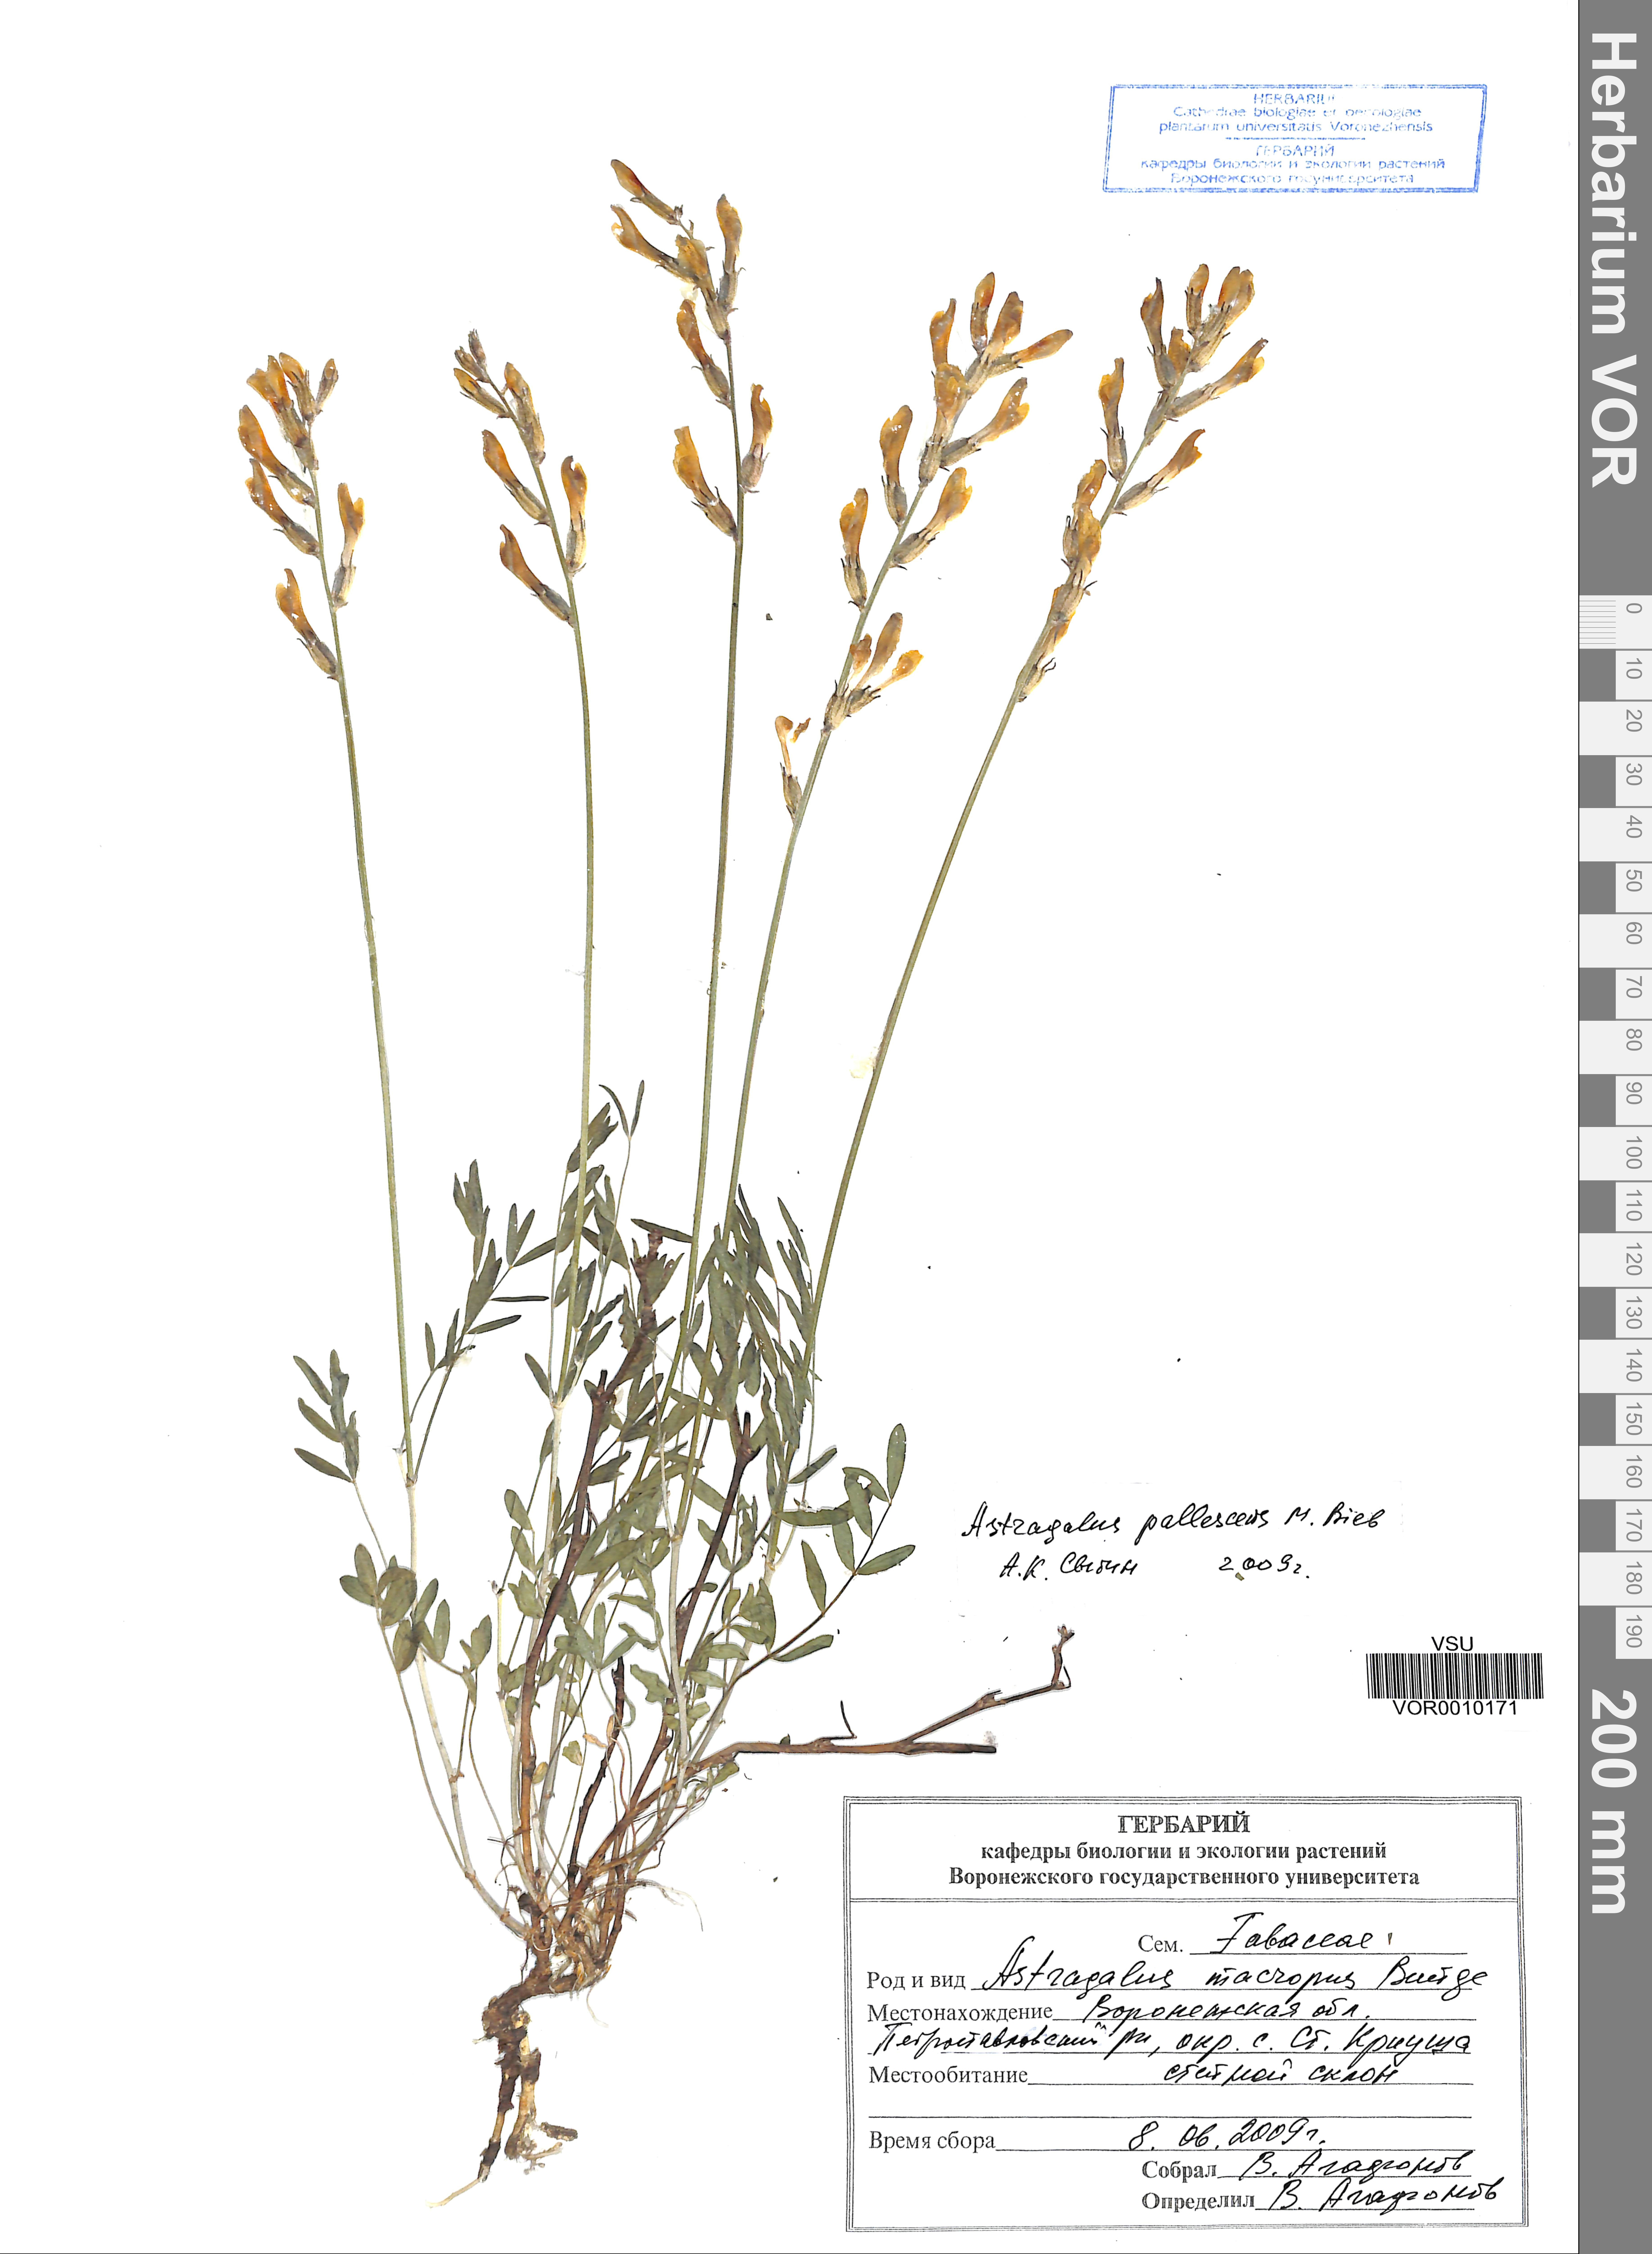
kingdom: Plantae
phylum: Tracheophyta
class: Magnoliopsida
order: Fabales
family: Fabaceae
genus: Astragalus
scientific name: Astragalus pallescens
